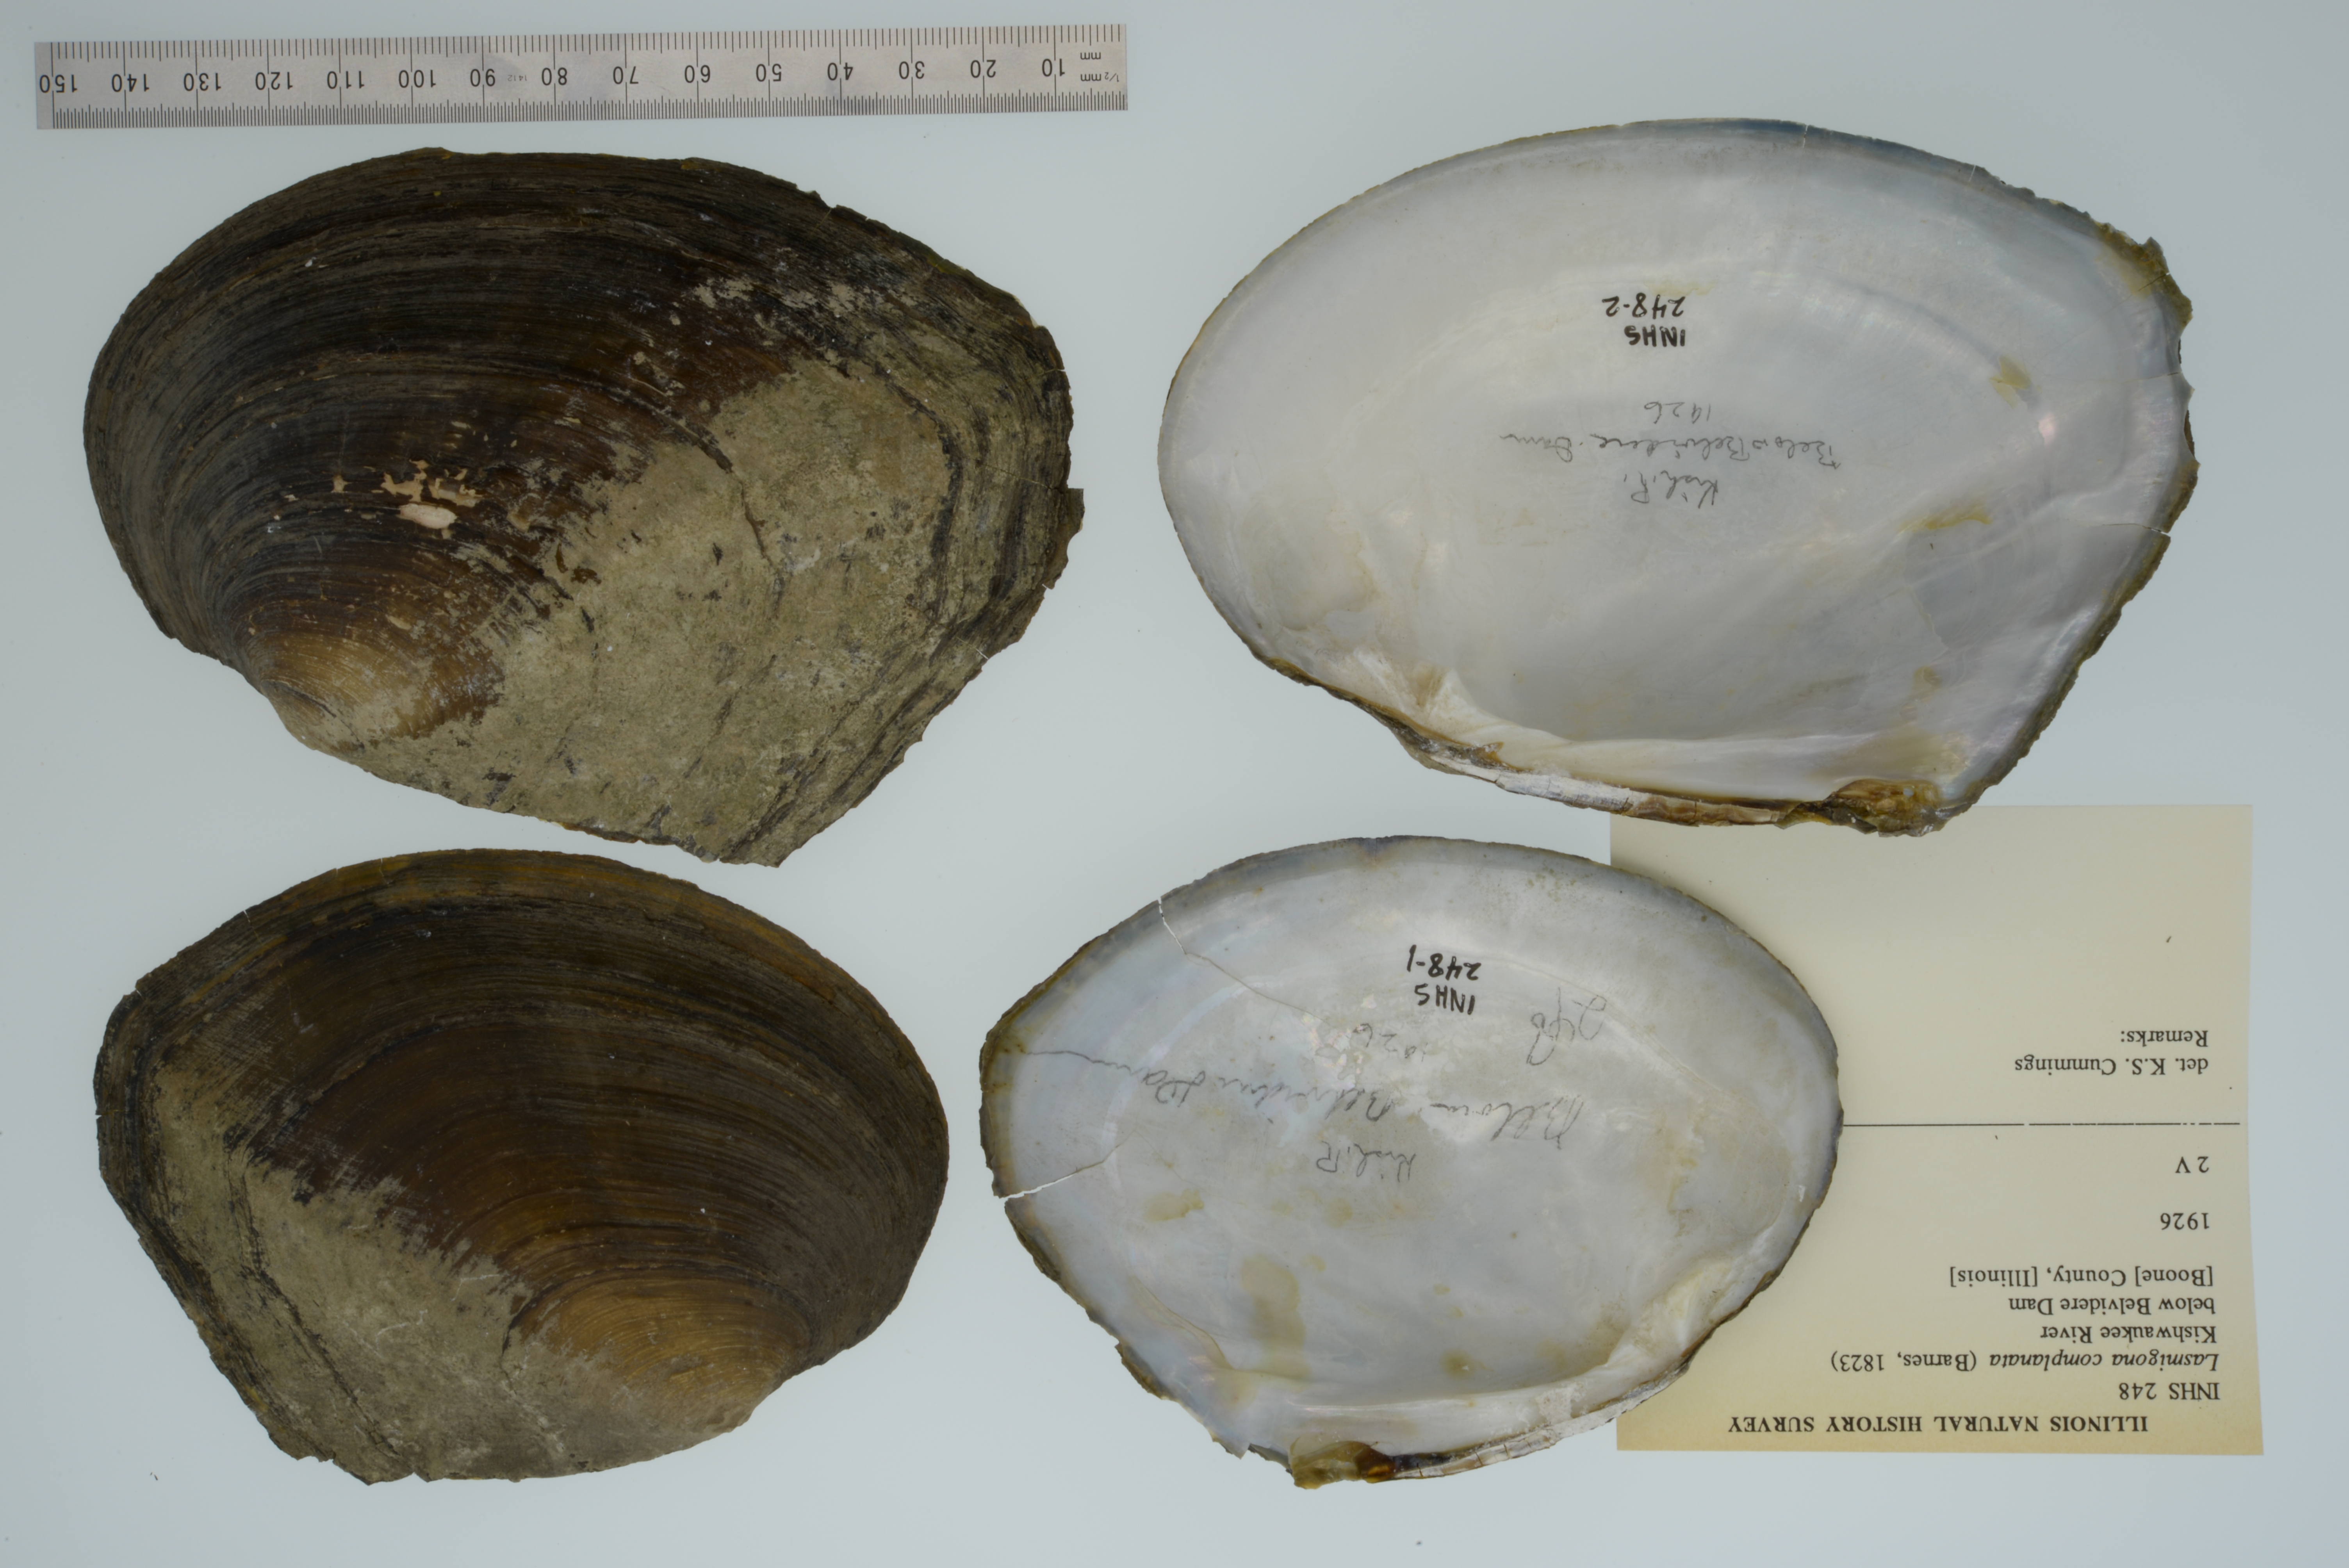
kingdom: Animalia
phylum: Mollusca
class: Bivalvia
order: Unionida
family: Unionidae
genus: Lasmigona
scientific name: Lasmigona complanata
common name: White heelsplitter
